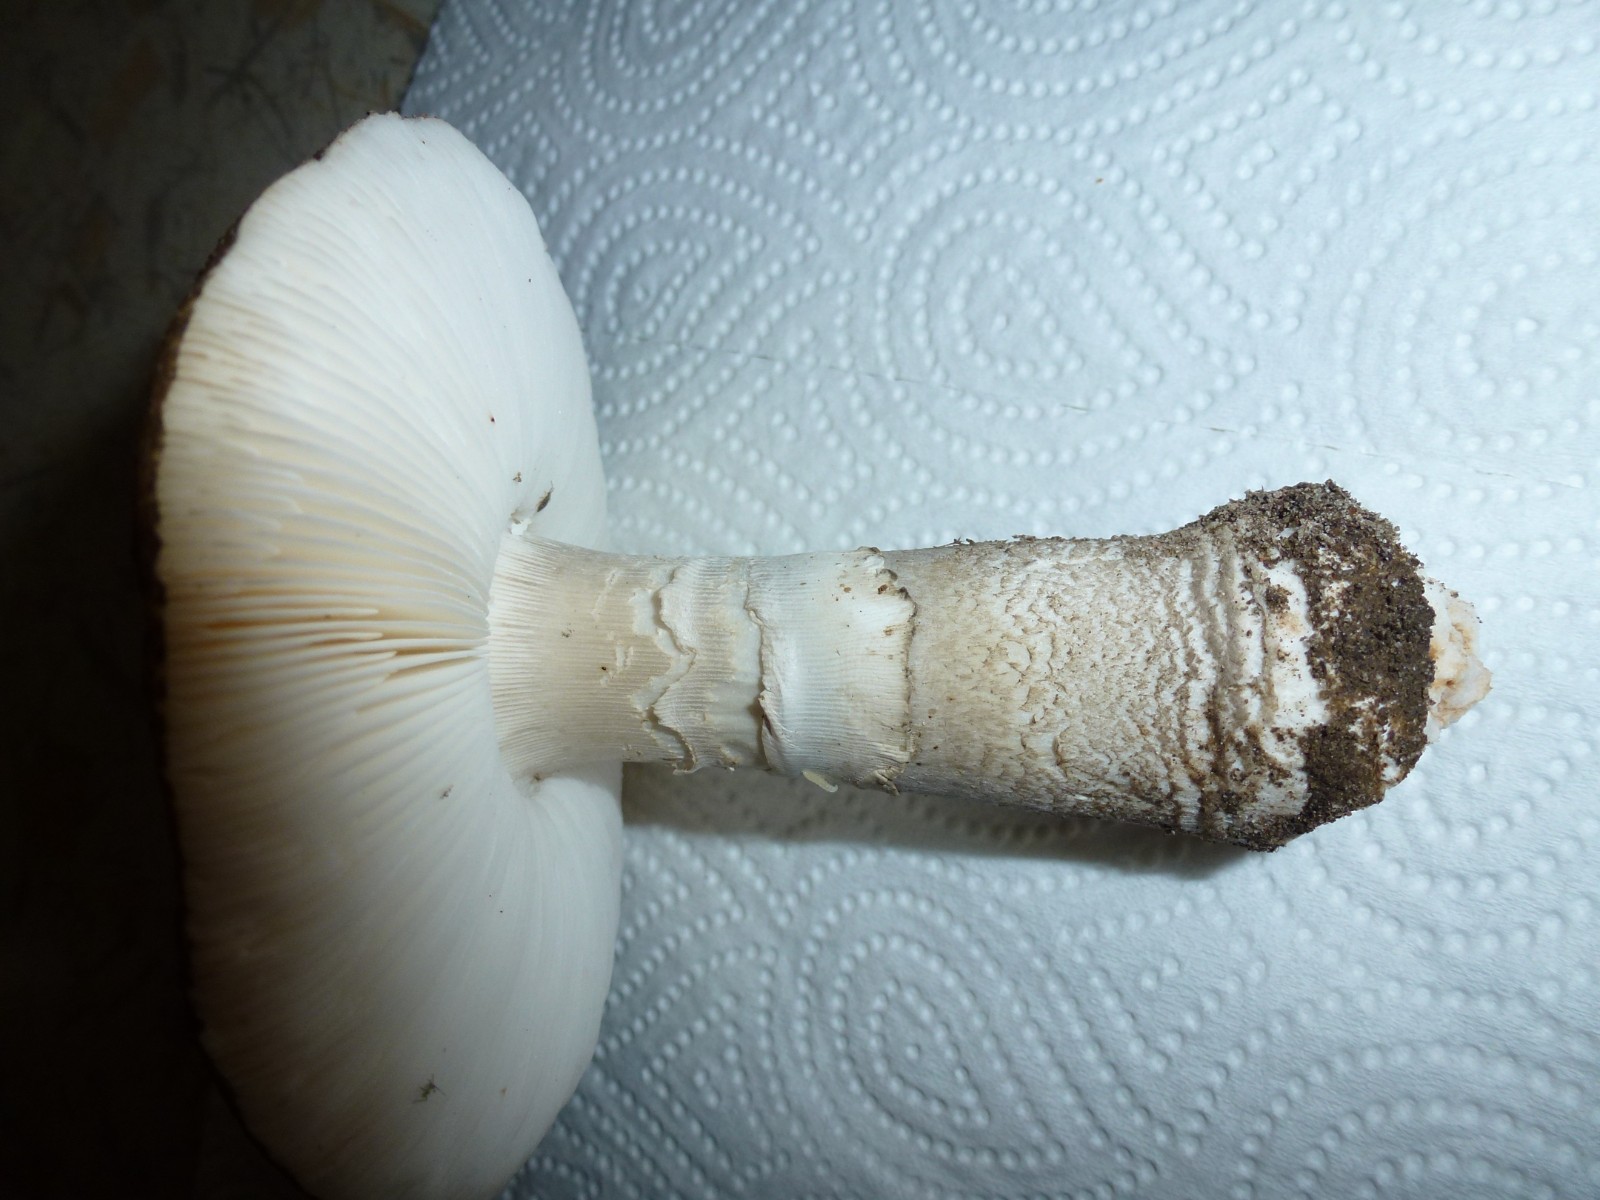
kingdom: Fungi
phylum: Basidiomycota
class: Agaricomycetes
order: Agaricales
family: Amanitaceae
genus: Amanita
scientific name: Amanita
